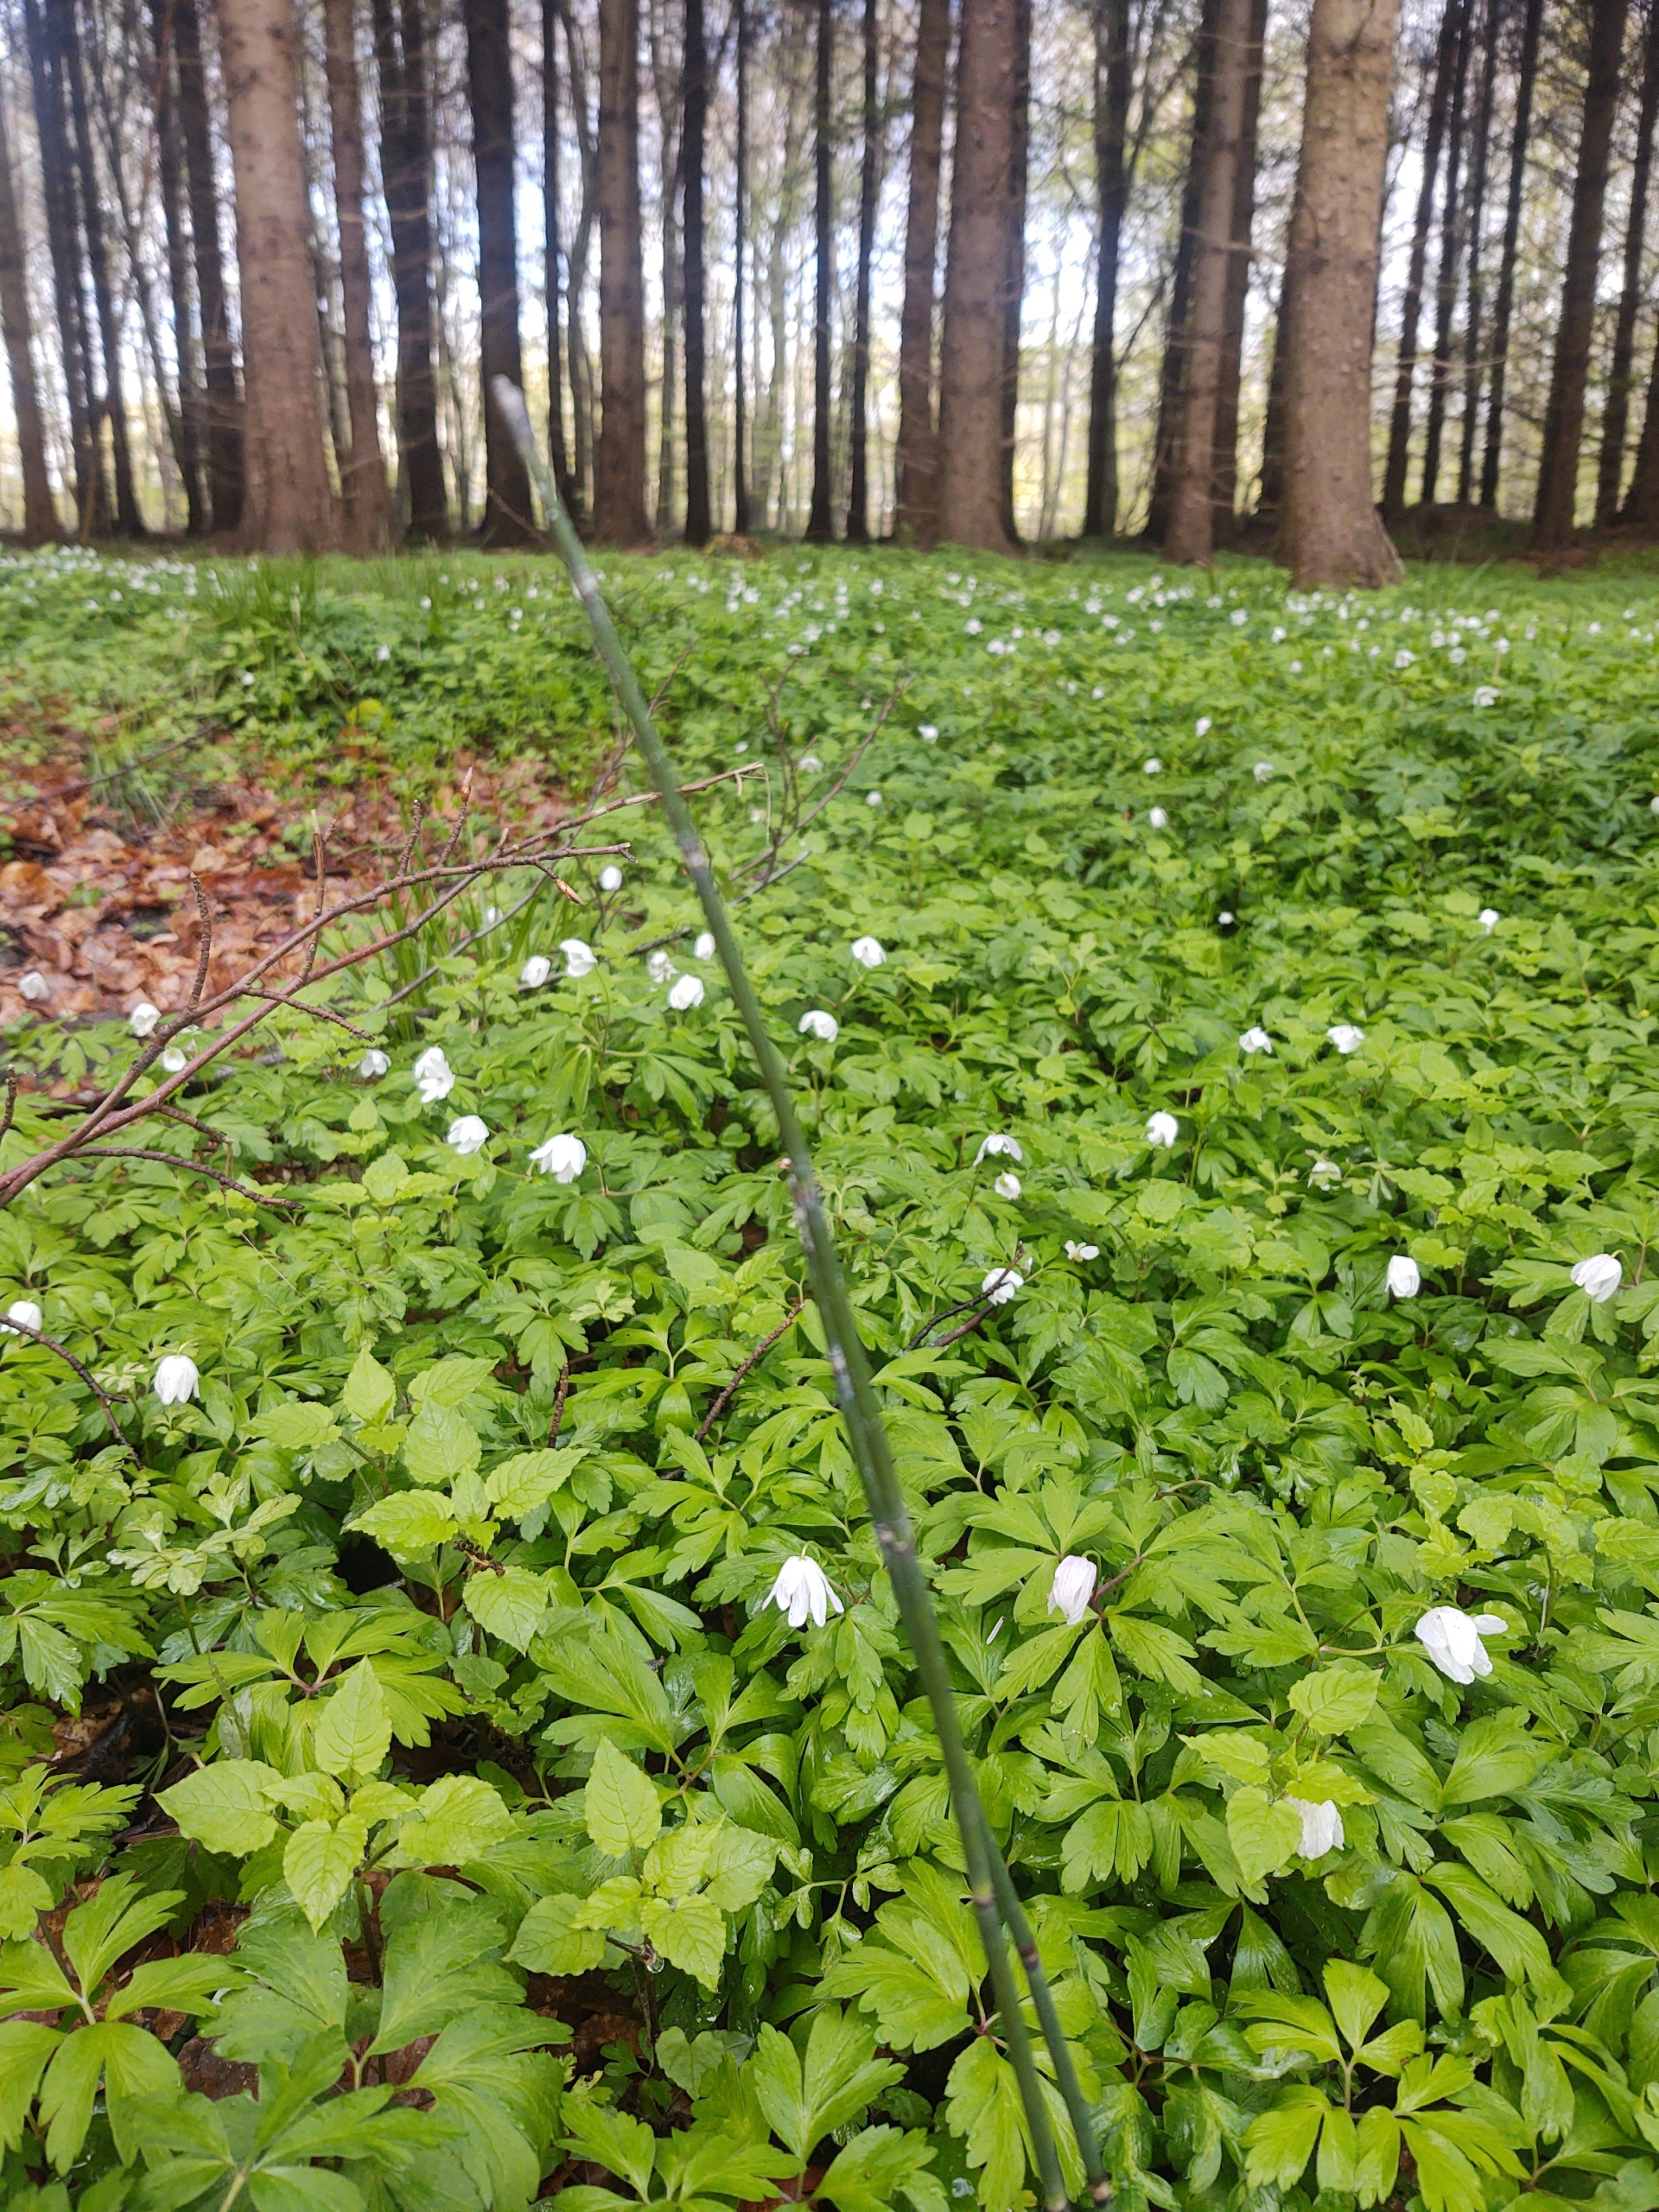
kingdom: Plantae
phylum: Tracheophyta
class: Polypodiopsida
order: Equisetales
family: Equisetaceae
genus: Equisetum
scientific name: Equisetum hyemale
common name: Skavgræs
